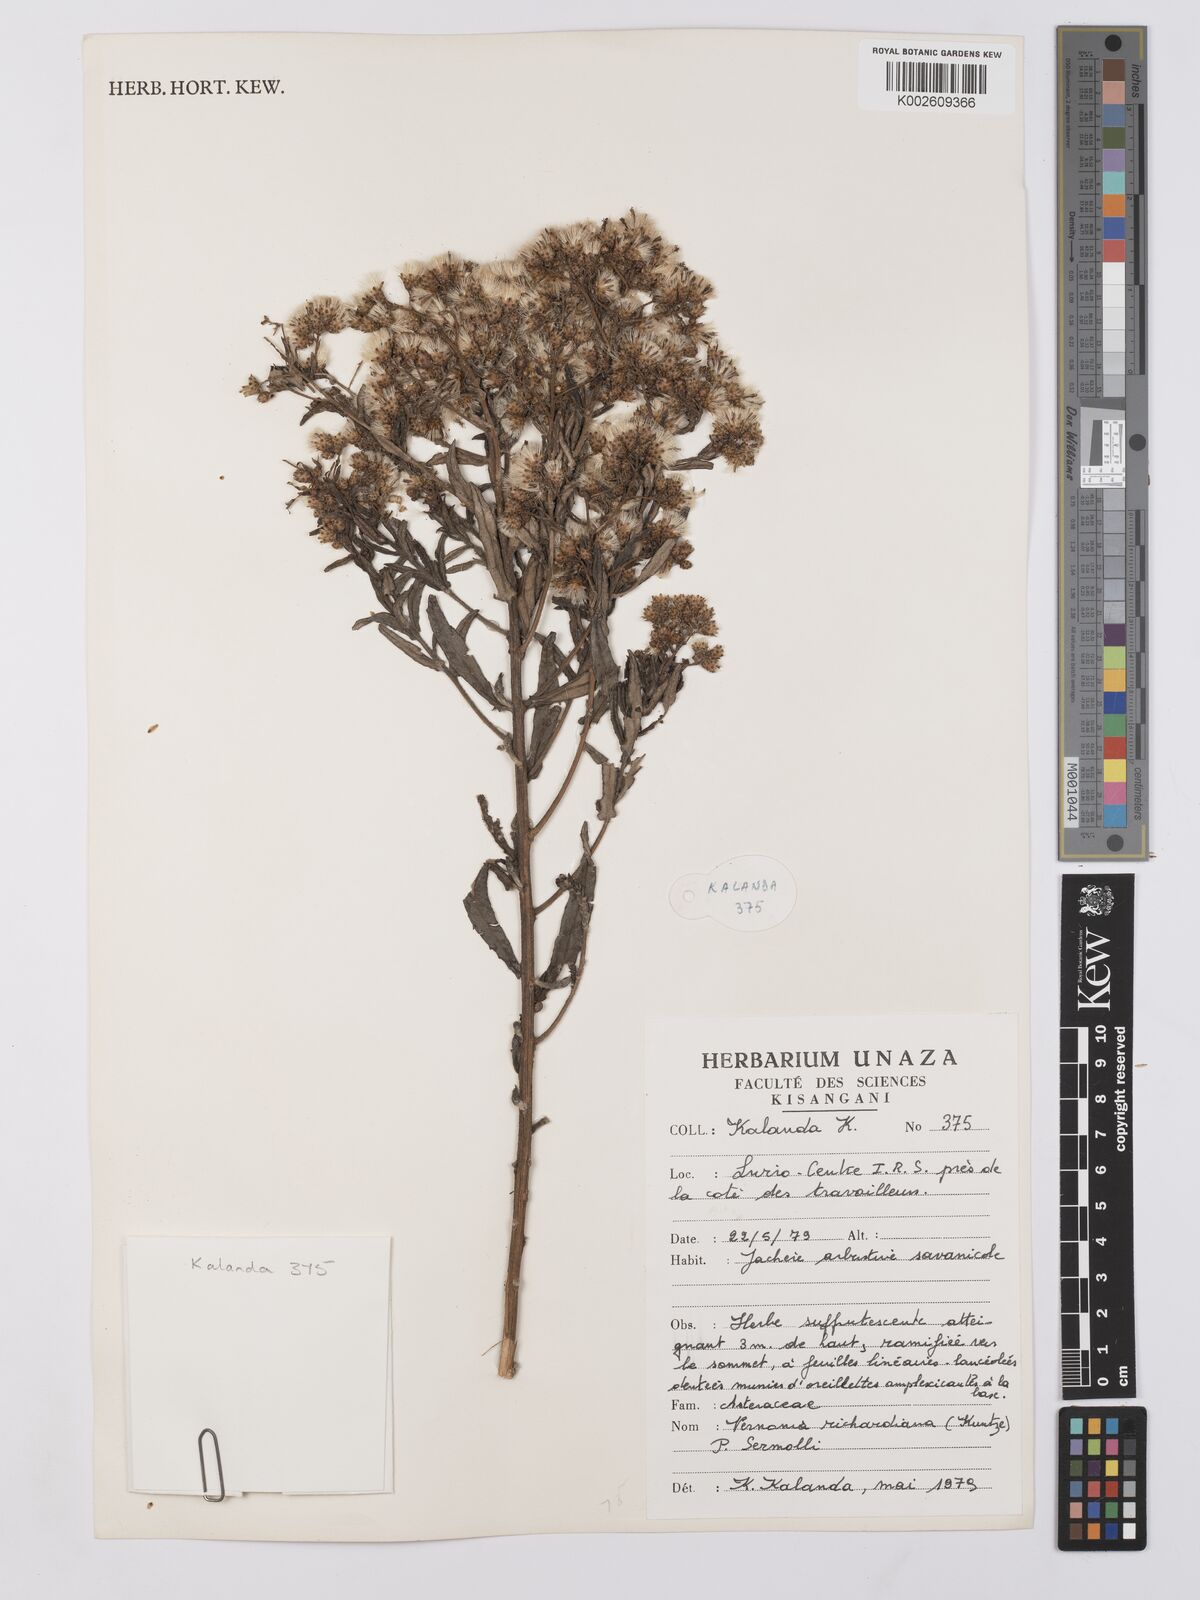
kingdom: Plantae
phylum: Tracheophyta
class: Magnoliopsida
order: Asterales
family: Asteraceae
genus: Vernonia
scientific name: Vernonia ischnophylla
